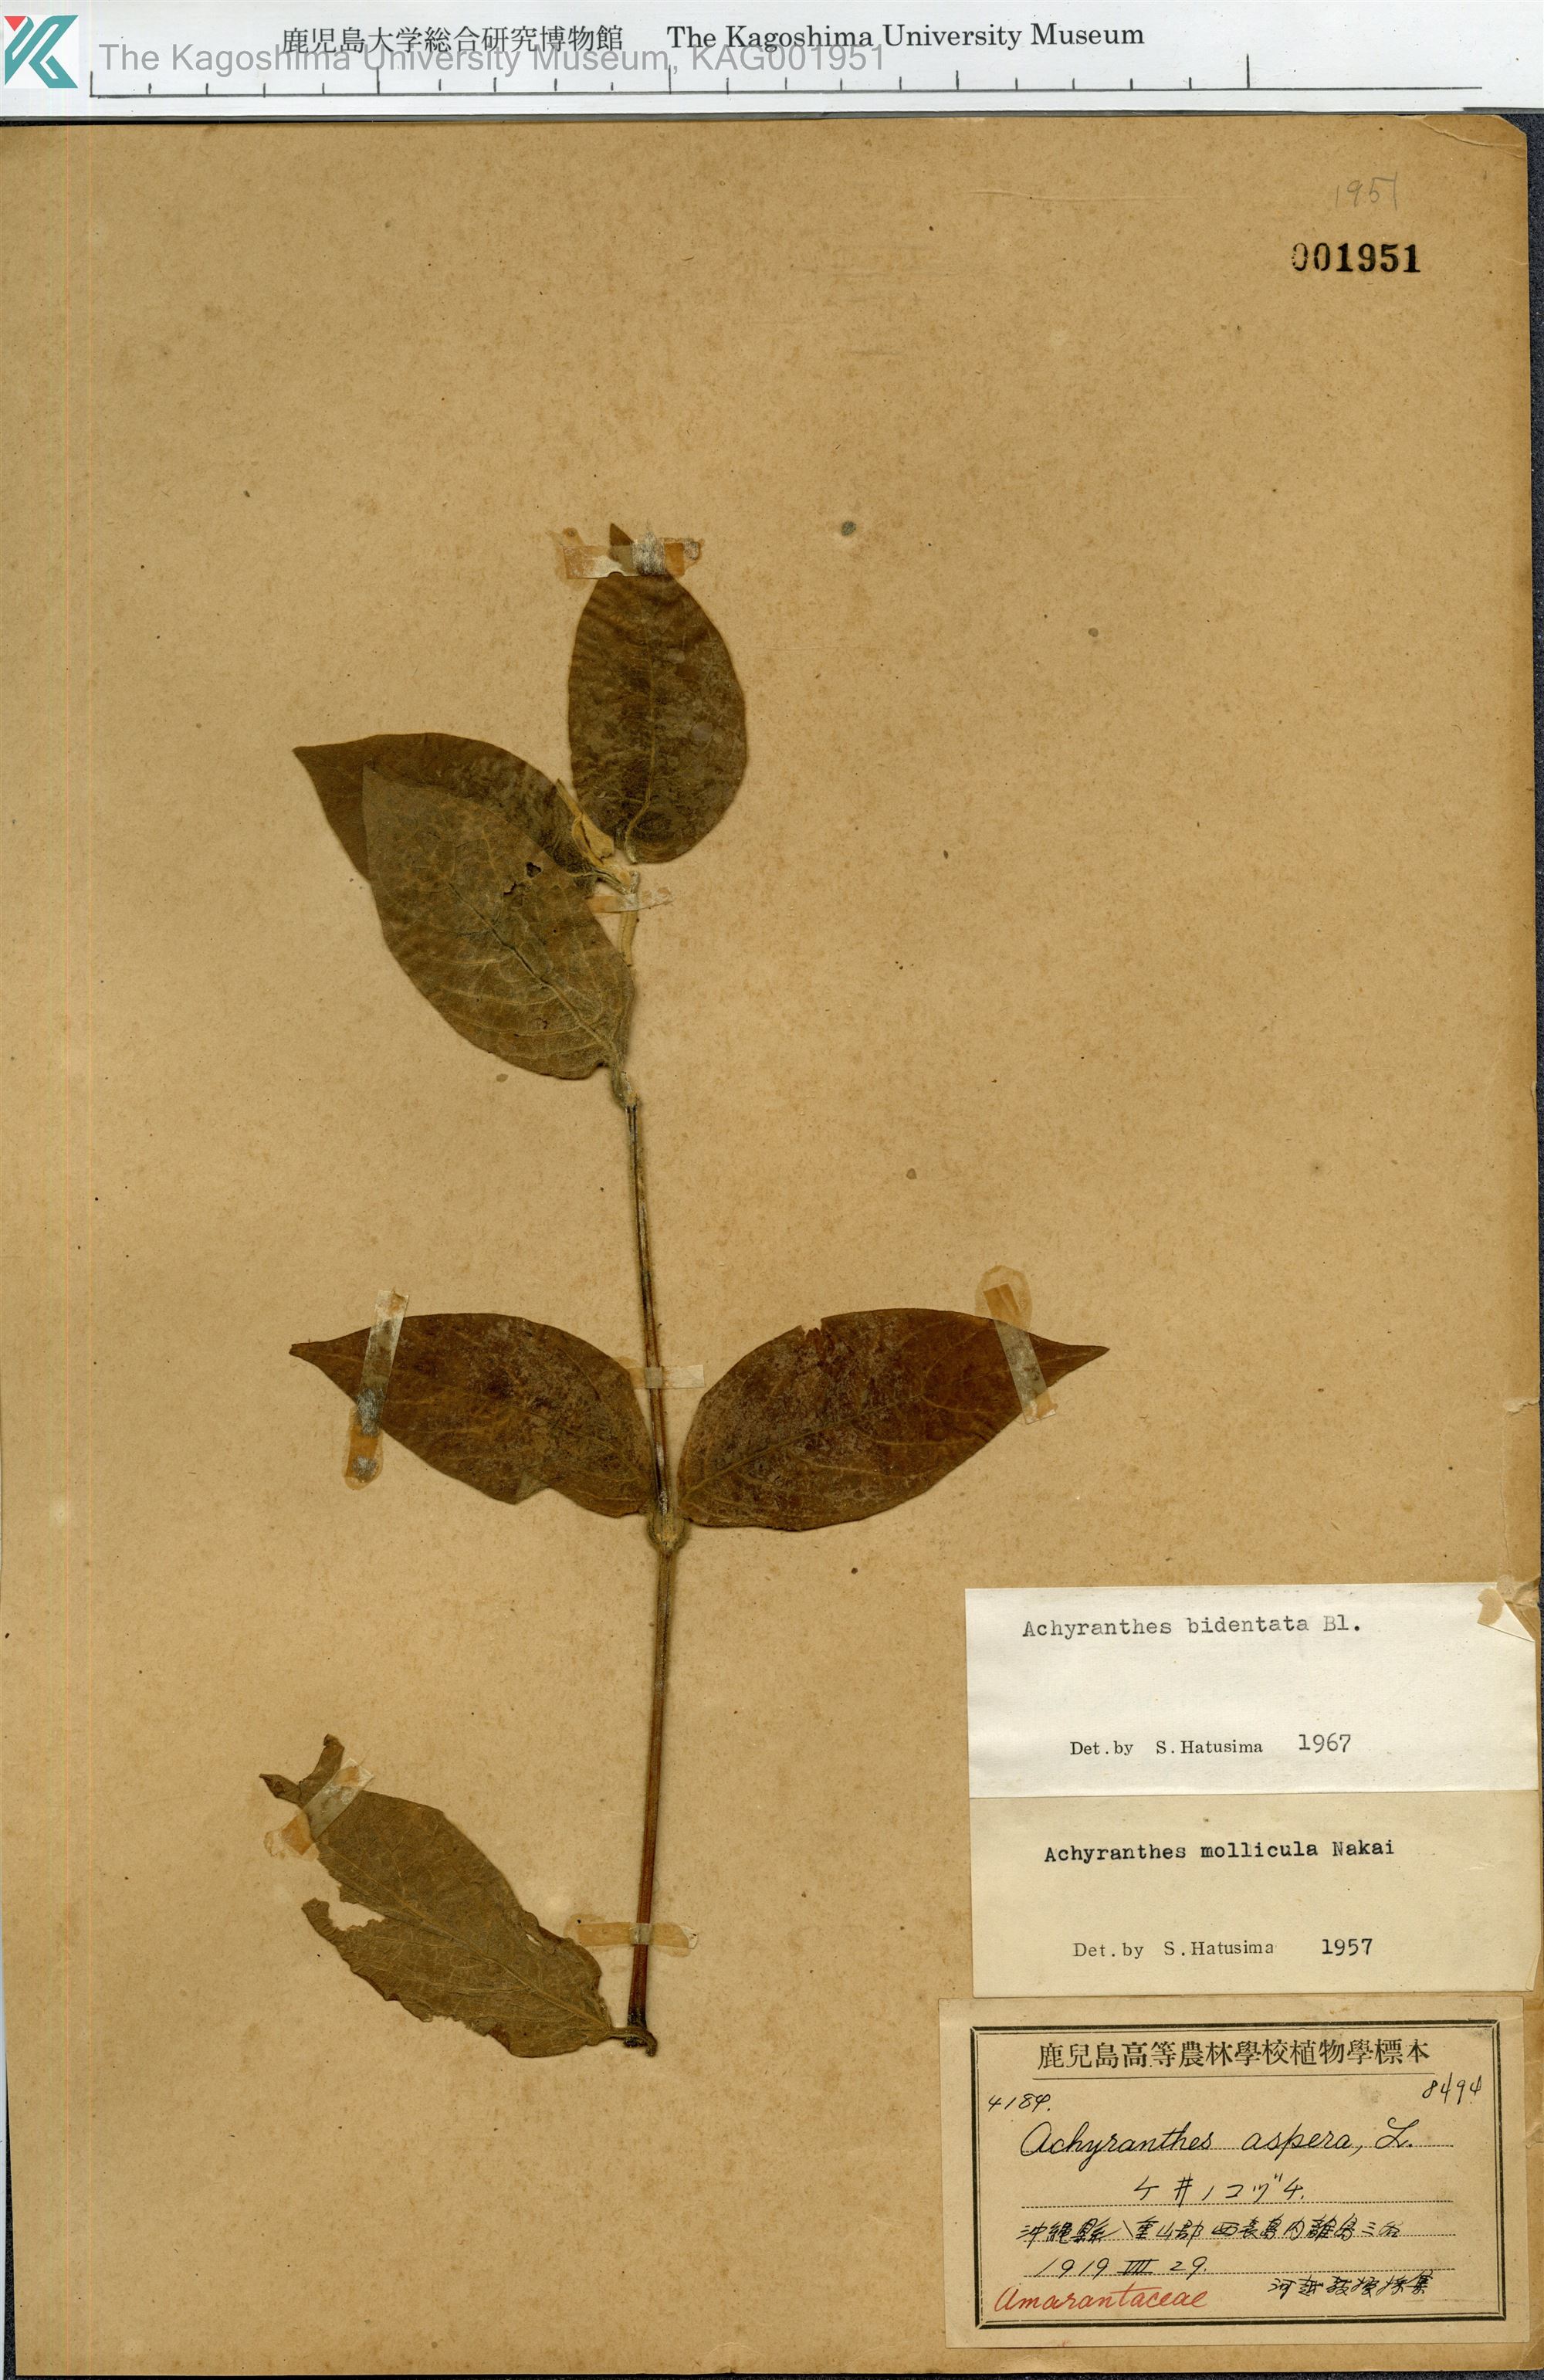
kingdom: Plantae
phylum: Tracheophyta
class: Magnoliopsida
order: Caryophyllales
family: Amaranthaceae
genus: Achyranthes
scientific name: Achyranthes bidentata
